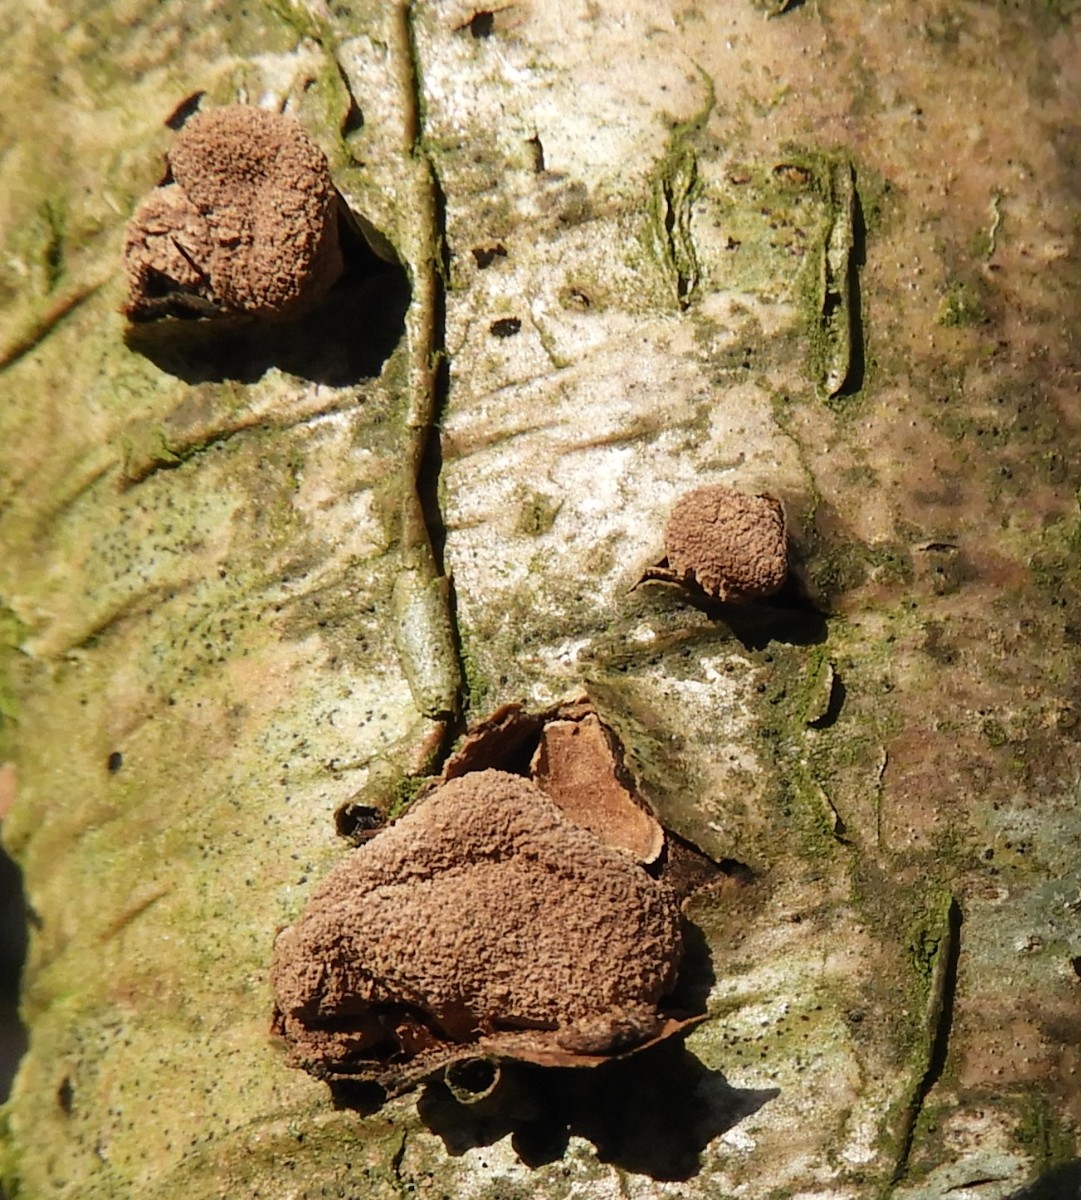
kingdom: Fungi
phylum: Ascomycota
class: Leotiomycetes
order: Helotiales
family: Cenangiaceae
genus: Encoelia
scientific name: Encoelia furfuracea
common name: hassel-læderskive
